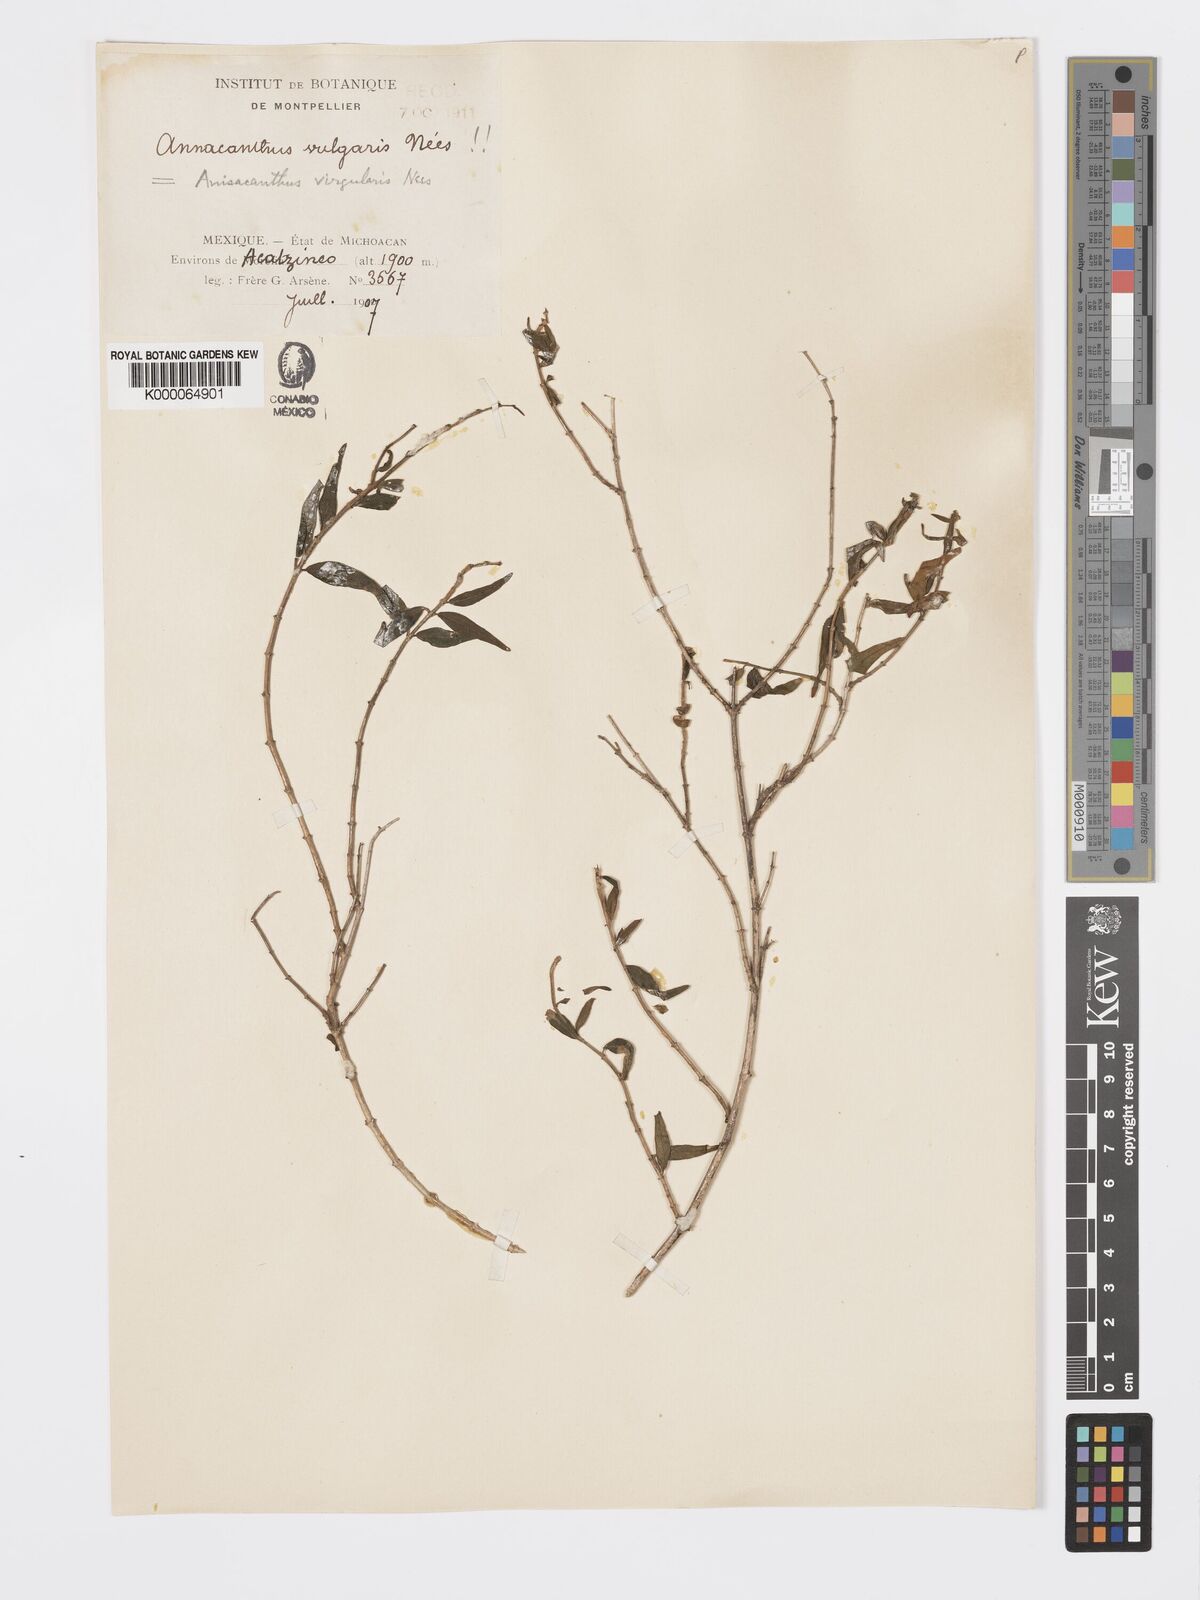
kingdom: Plantae
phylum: Tracheophyta
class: Magnoliopsida
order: Lamiales
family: Acanthaceae
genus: Anisacanthus
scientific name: Anisacanthus quadrifidus
